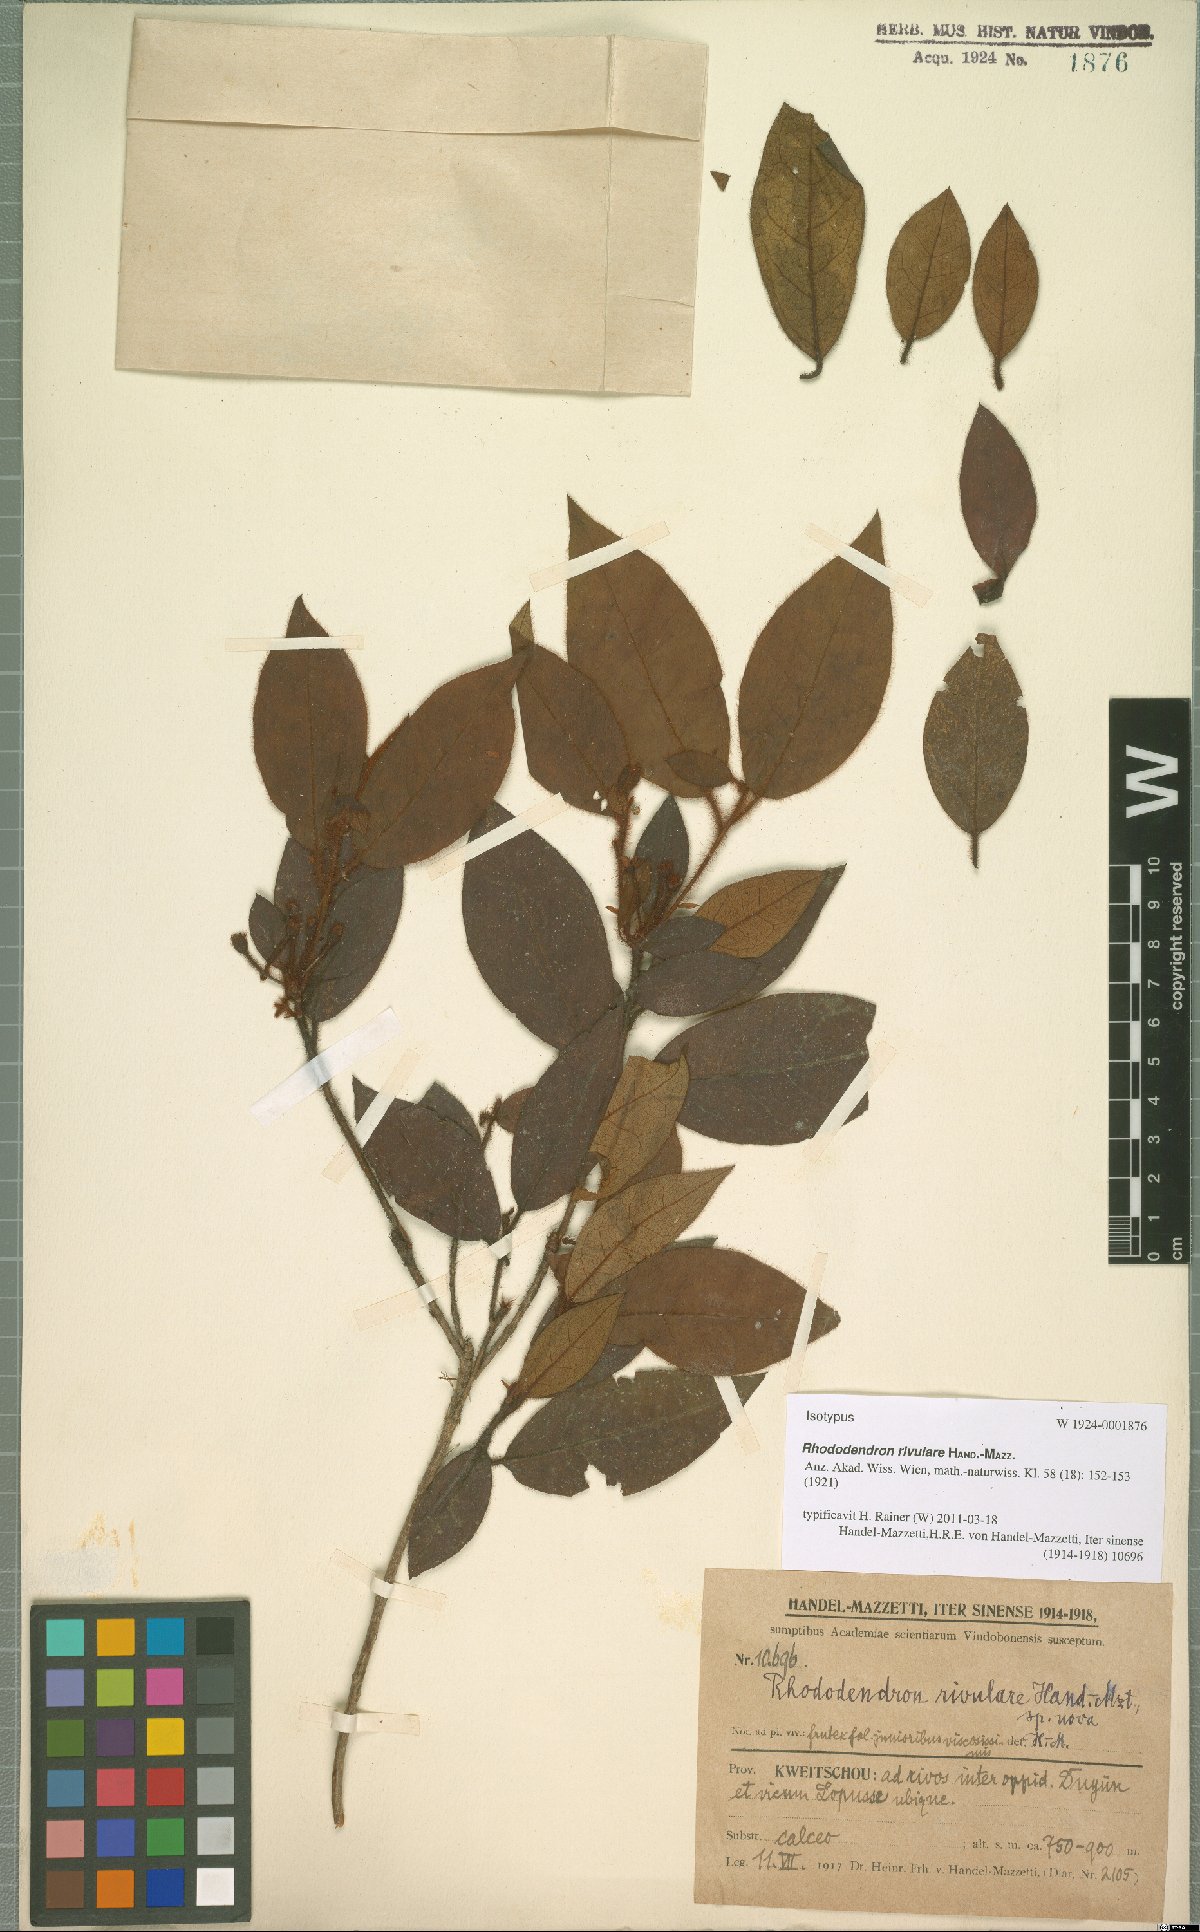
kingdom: Plantae
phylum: Tracheophyta
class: Magnoliopsida
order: Ericales
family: Ericaceae
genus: Rhododendron
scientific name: Rhododendron rivulare
